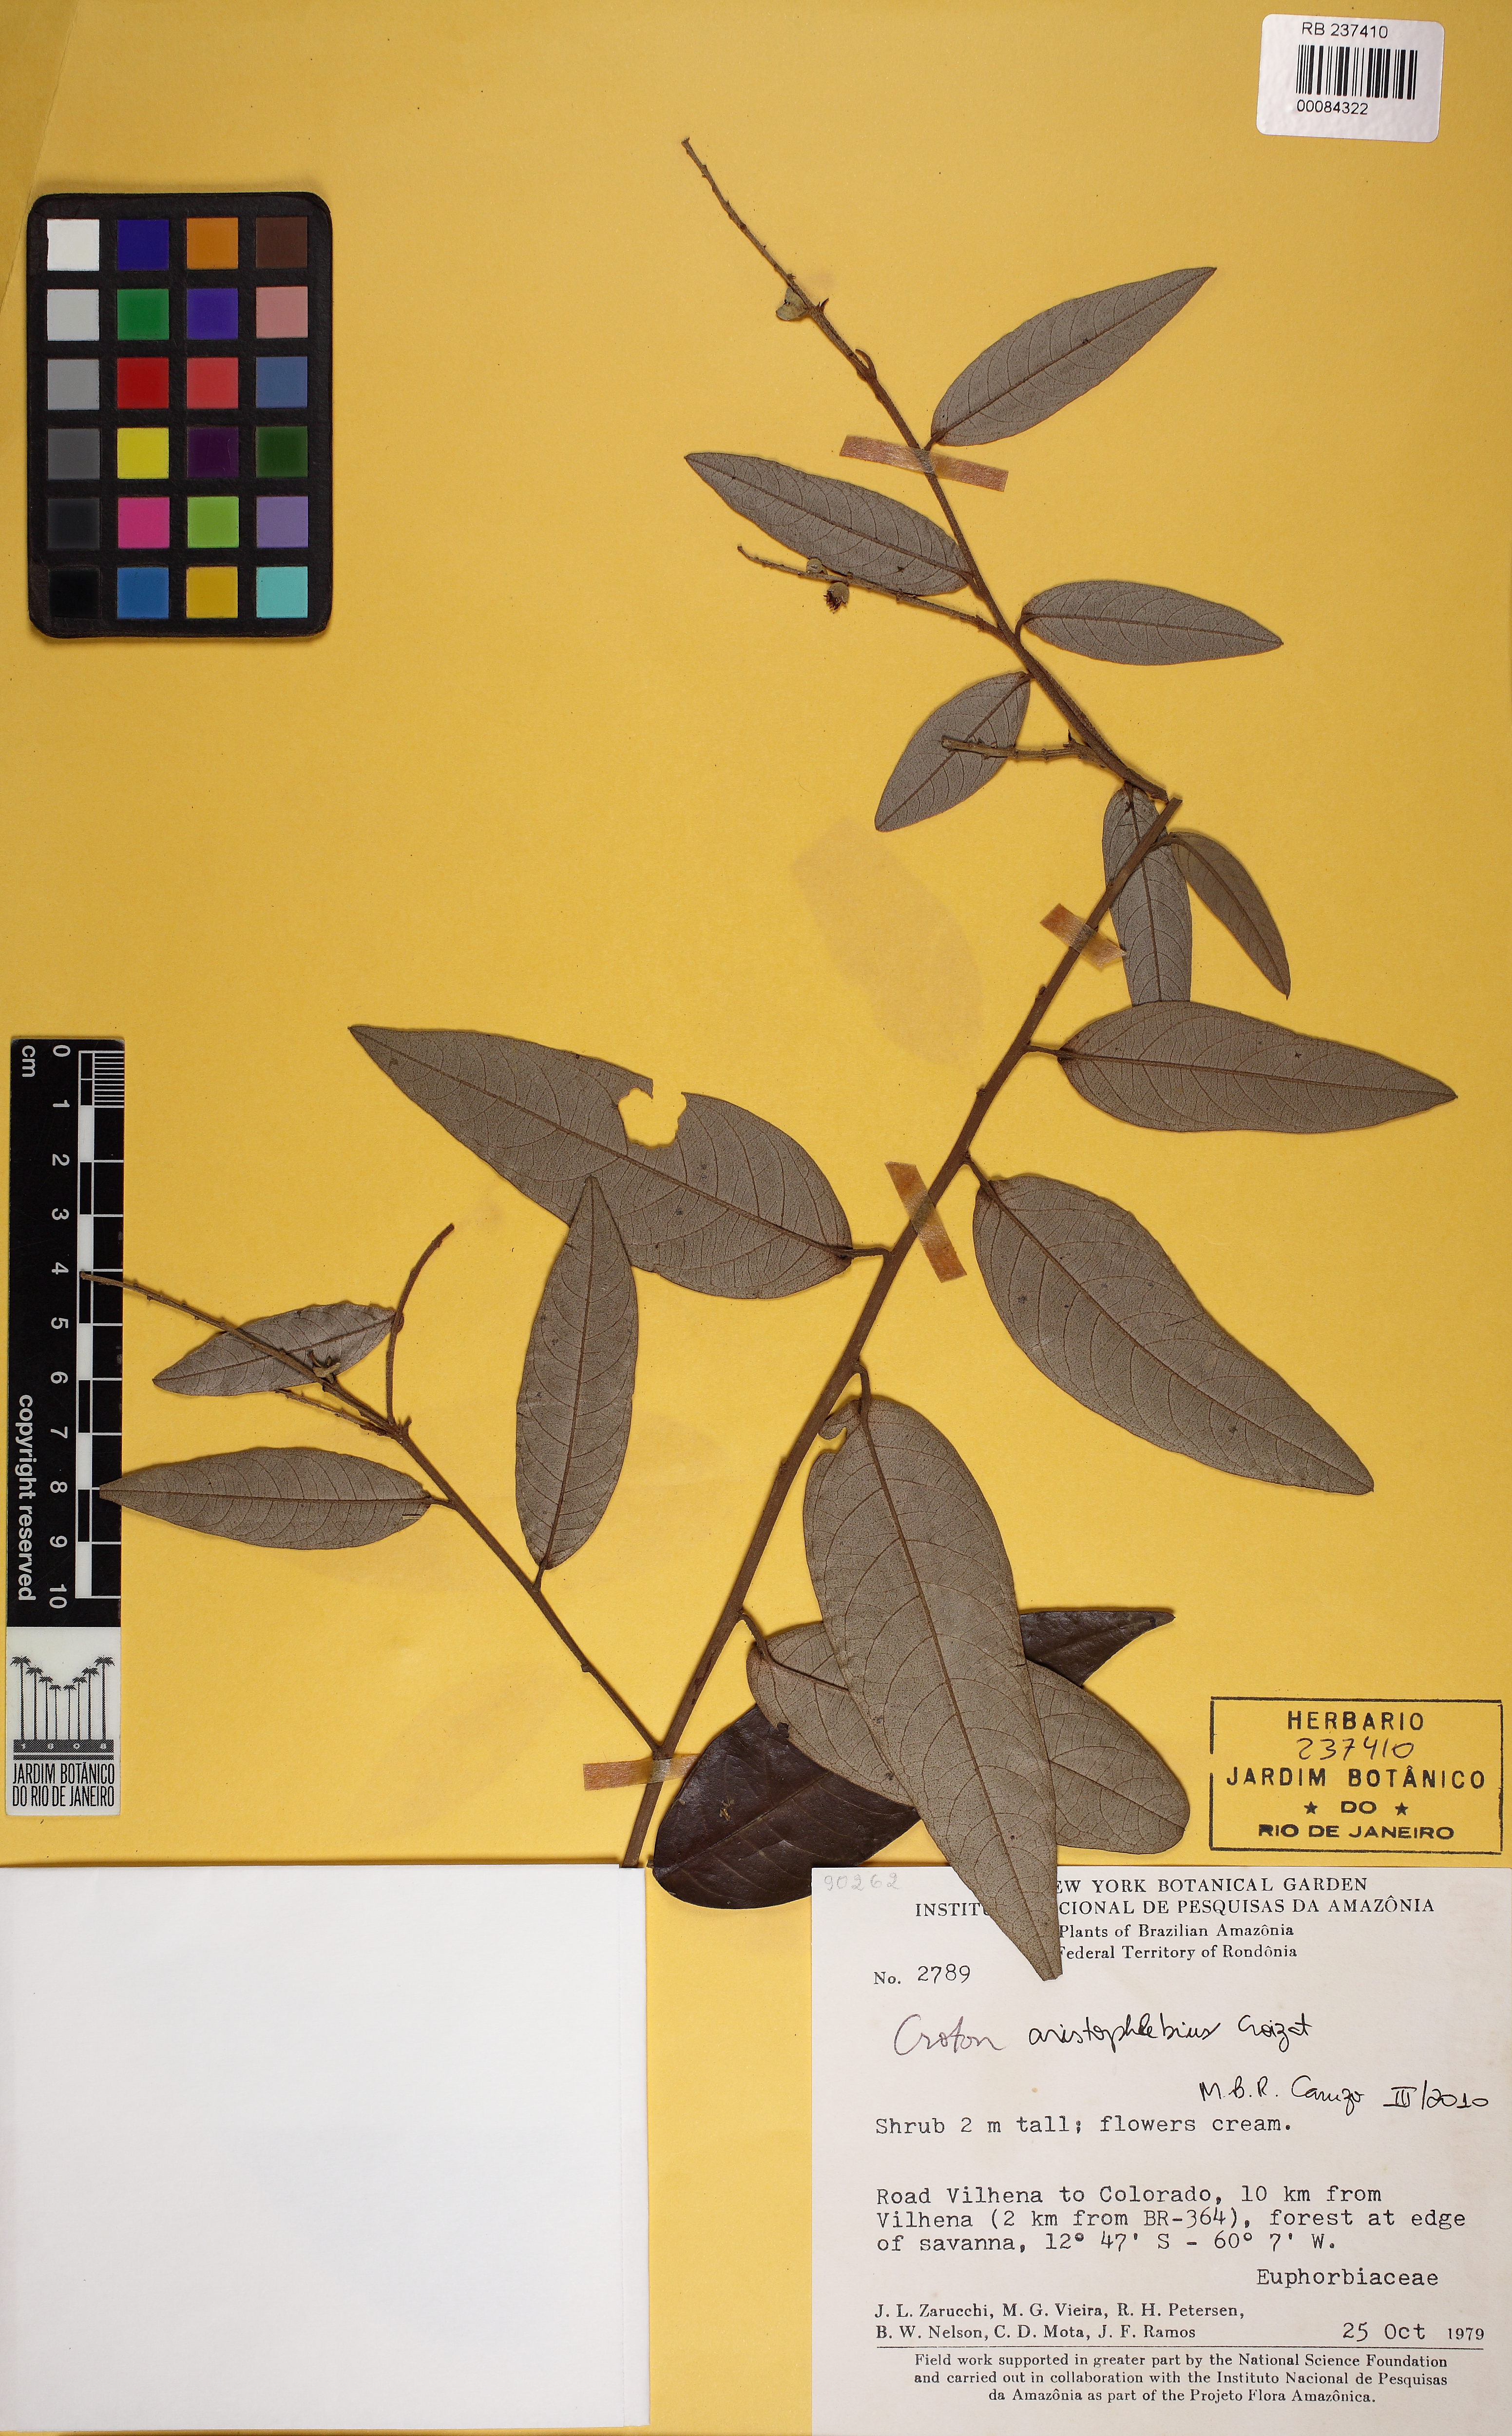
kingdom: Plantae
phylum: Tracheophyta
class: Magnoliopsida
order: Malpighiales
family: Euphorbiaceae
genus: Croton
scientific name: Croton
